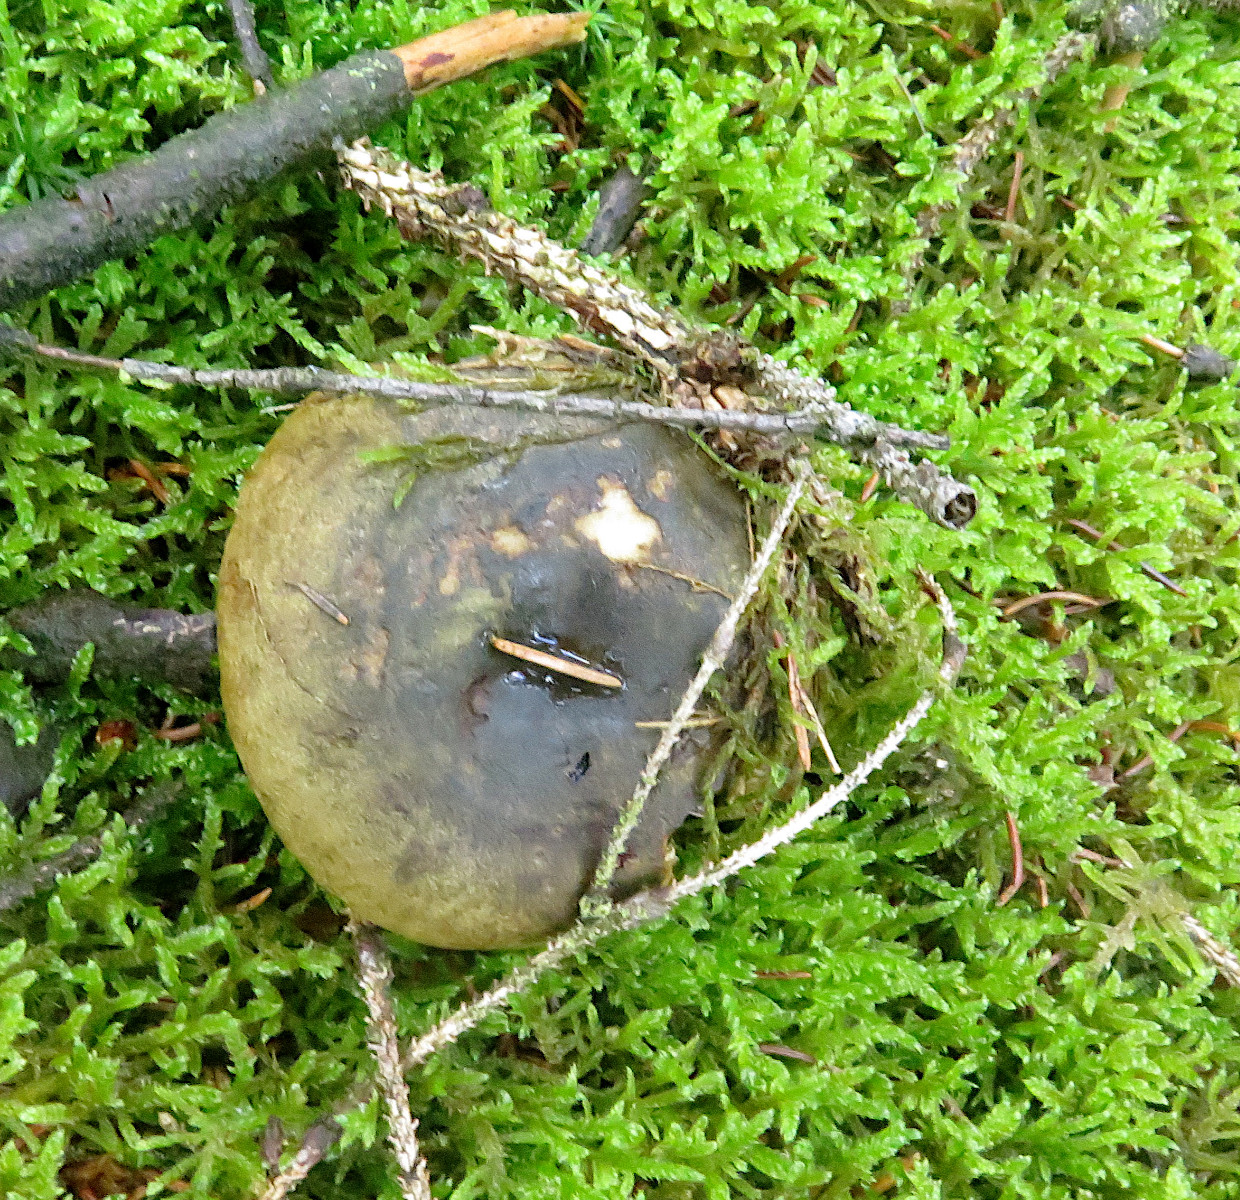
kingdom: Fungi
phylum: Basidiomycota
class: Agaricomycetes
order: Russulales
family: Russulaceae
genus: Lactarius
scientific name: Lactarius necator
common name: manddraber-mælkehat
